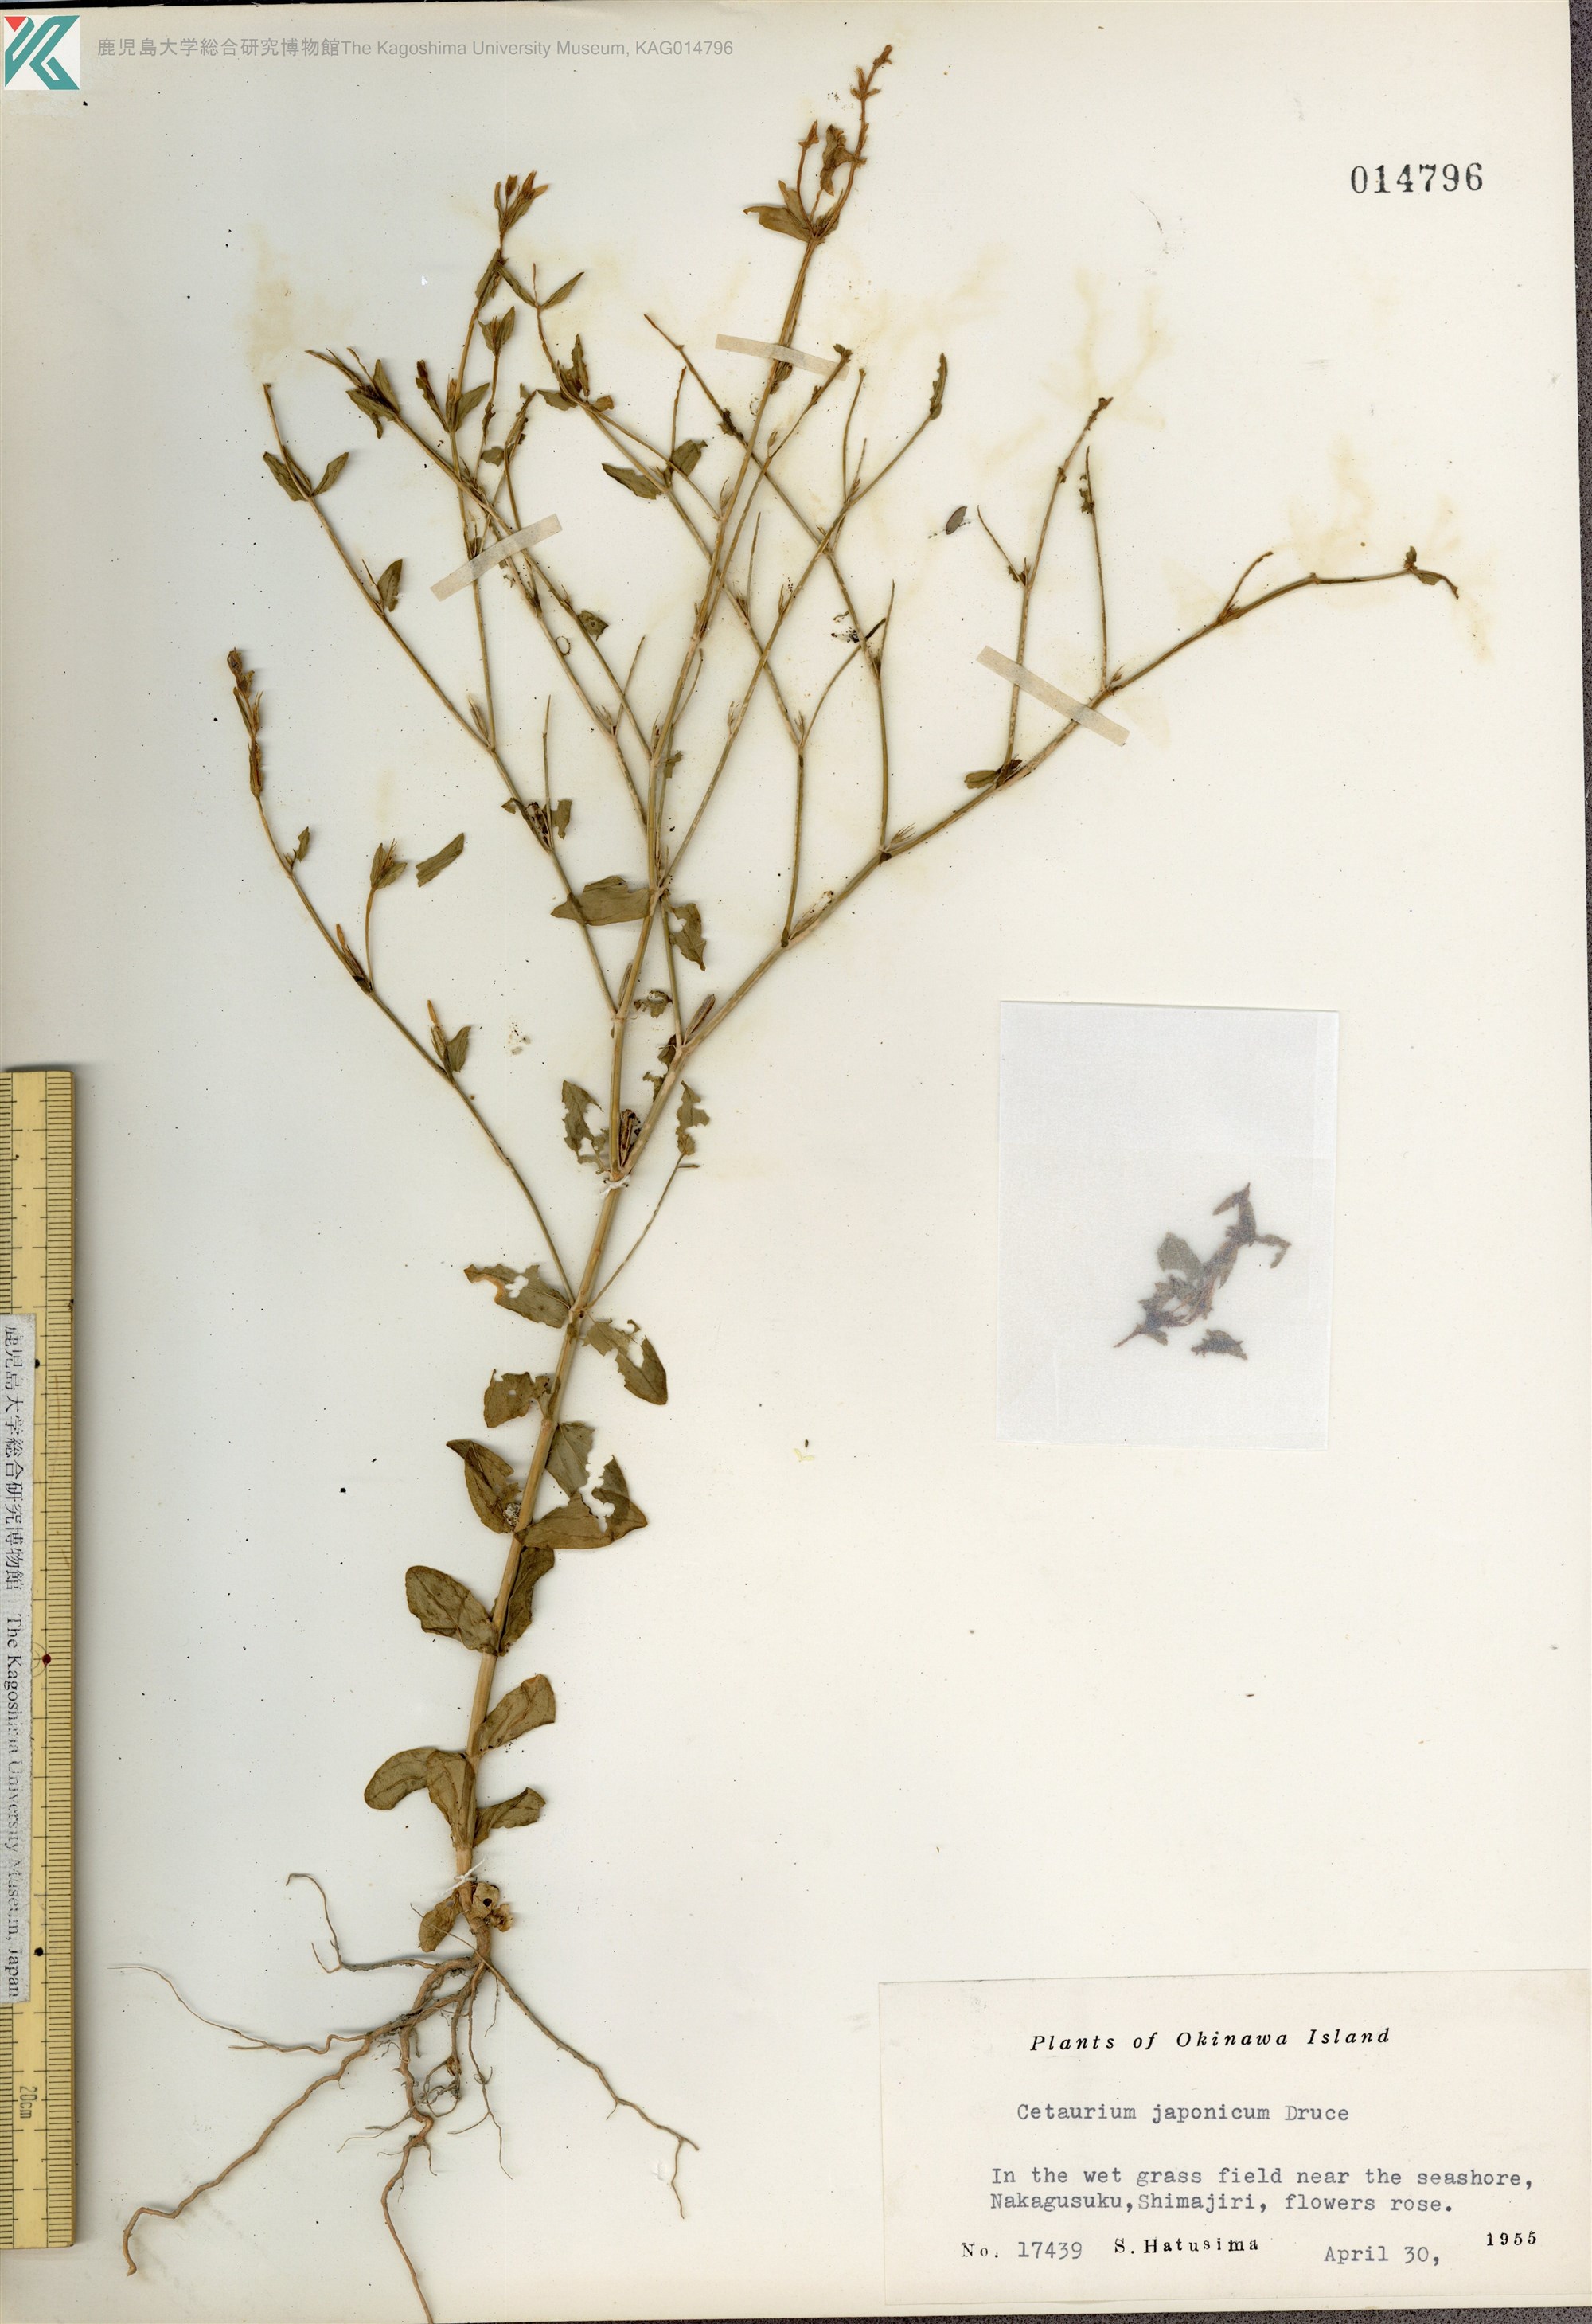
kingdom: Plantae
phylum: Tracheophyta
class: Magnoliopsida
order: Gentianales
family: Gentianaceae
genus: Schenkia
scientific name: Schenkia japonica
